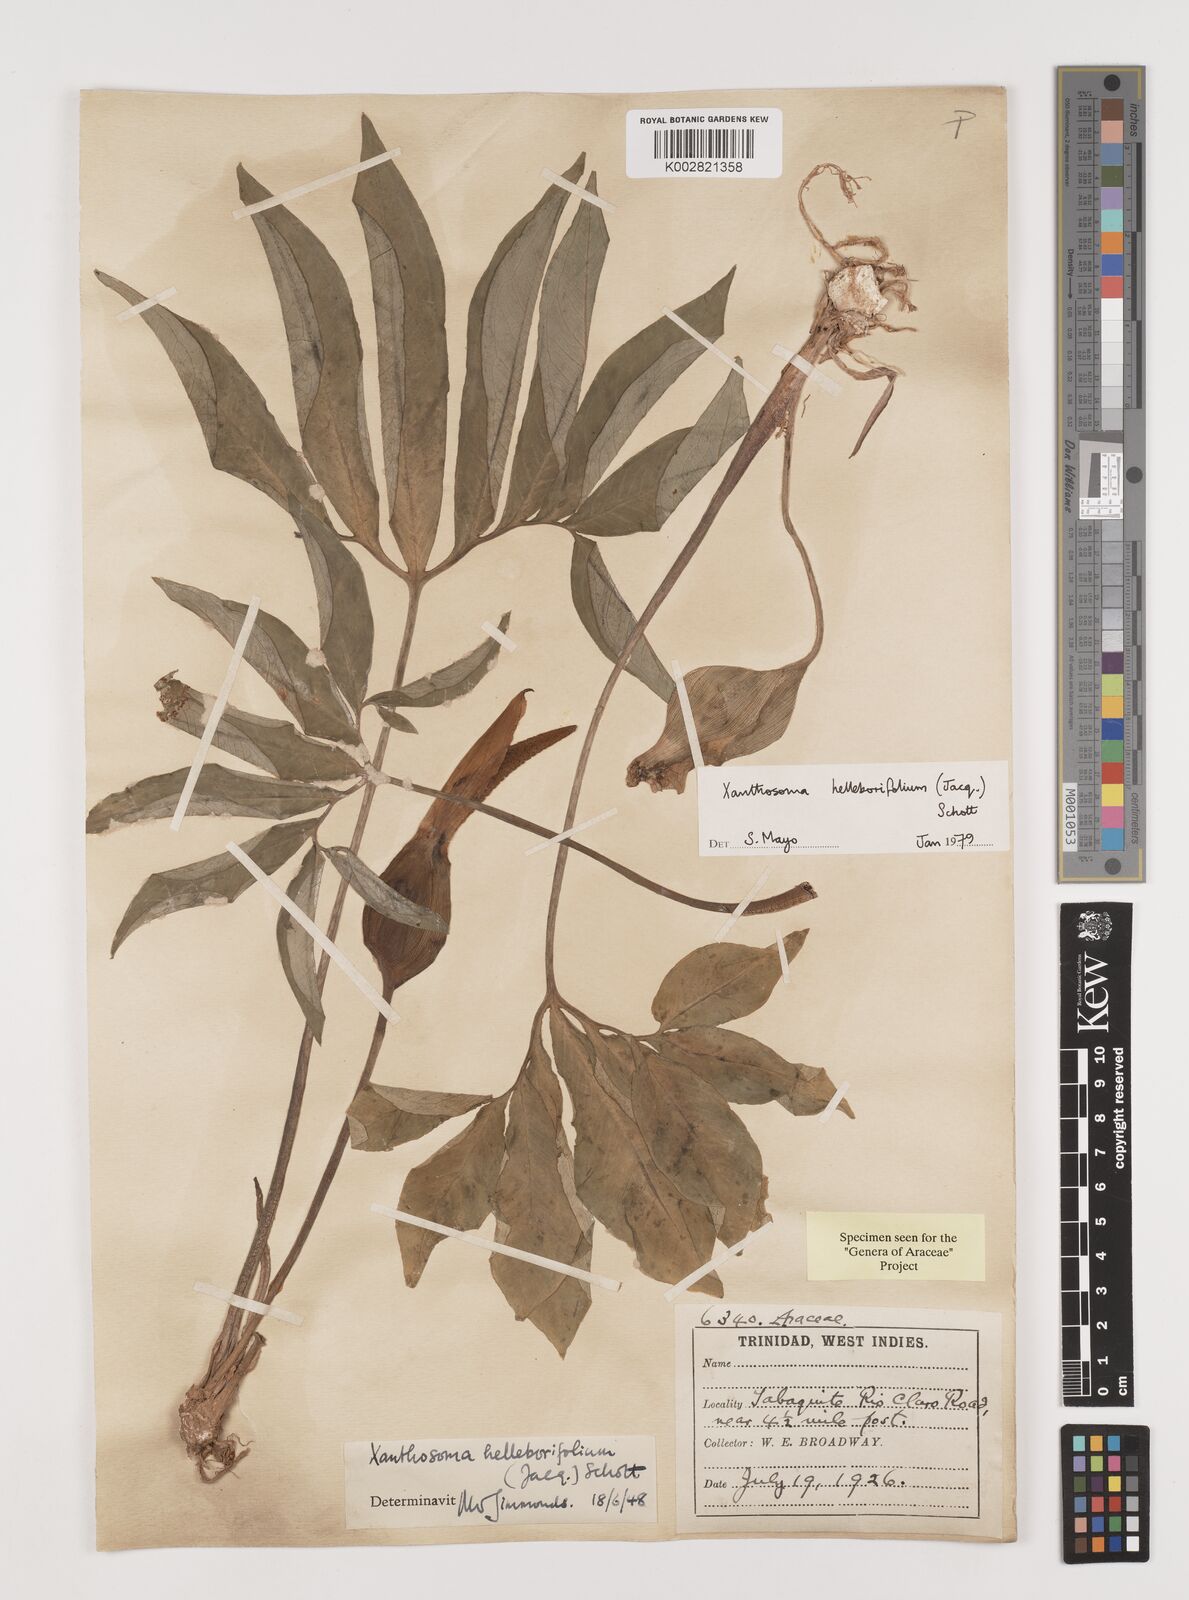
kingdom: Plantae
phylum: Tracheophyta
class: Liliopsida
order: Alismatales
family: Araceae
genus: Xanthosoma
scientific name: Xanthosoma helleborifolium
